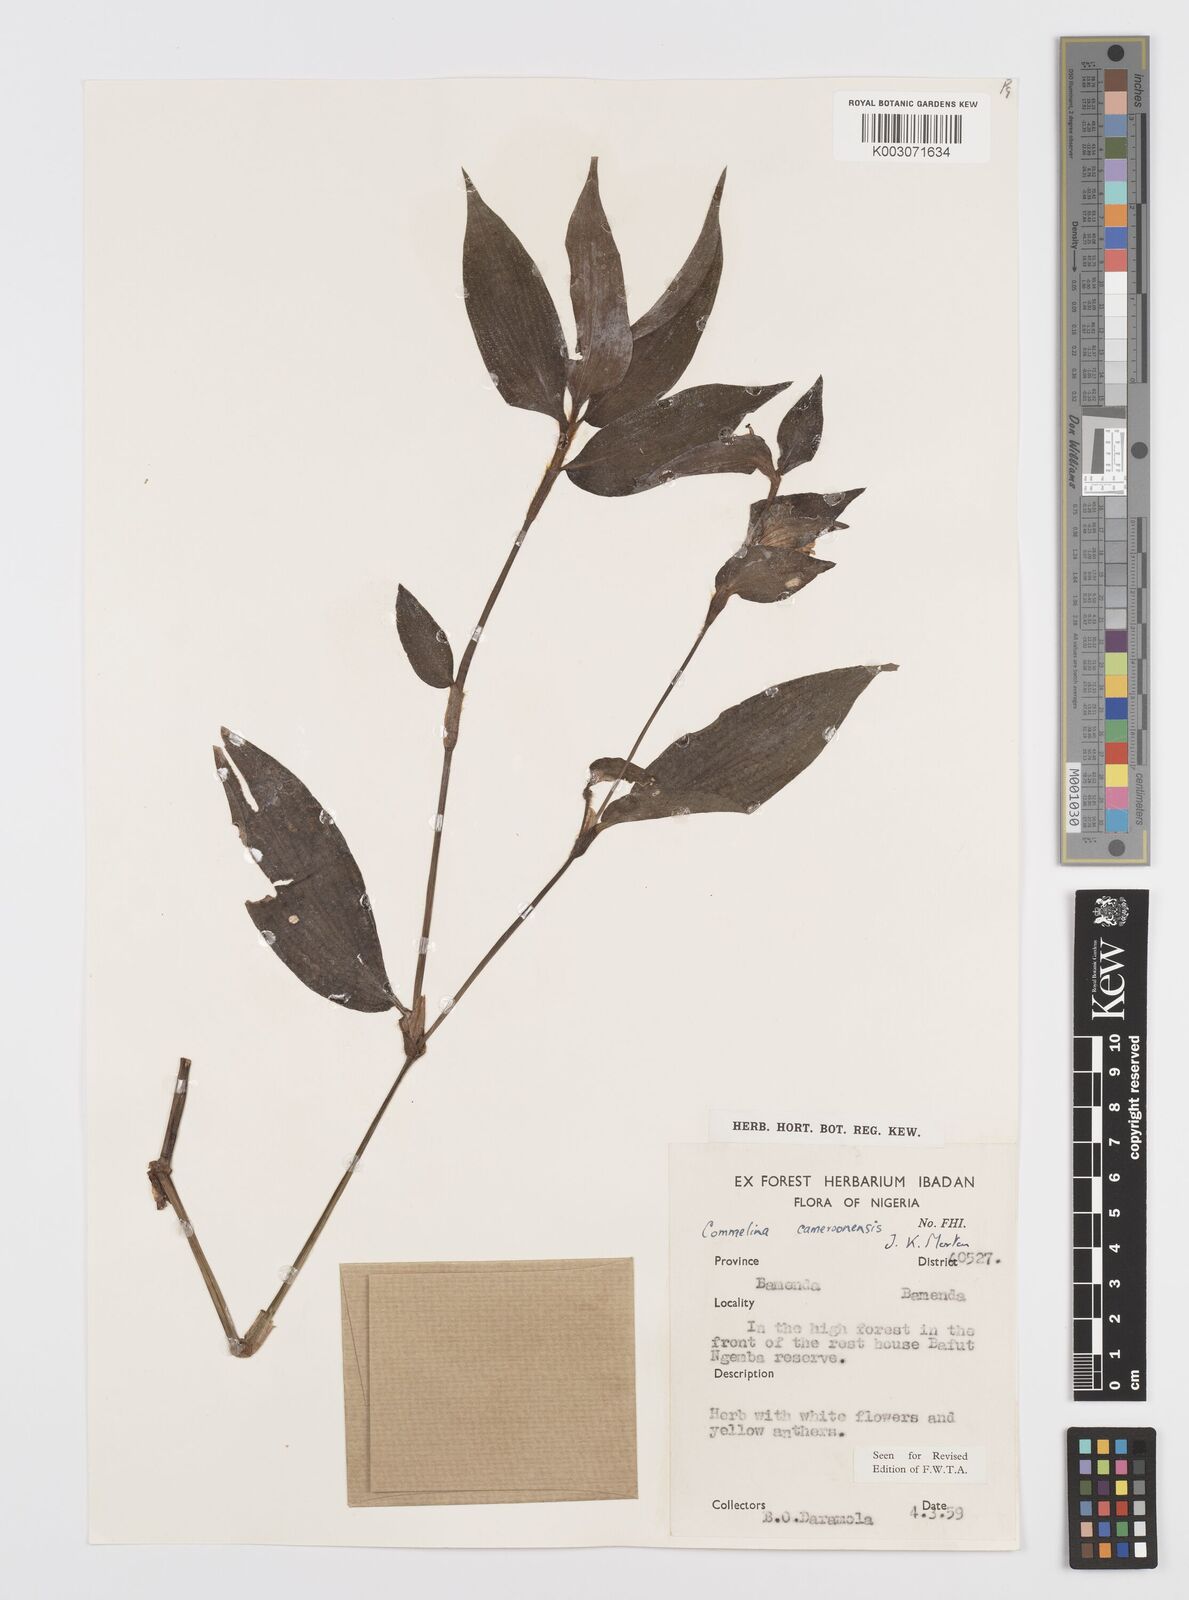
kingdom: Plantae
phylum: Tracheophyta
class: Liliopsida
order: Commelinales
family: Commelinaceae
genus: Commelina
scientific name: Commelina cameroonensis
